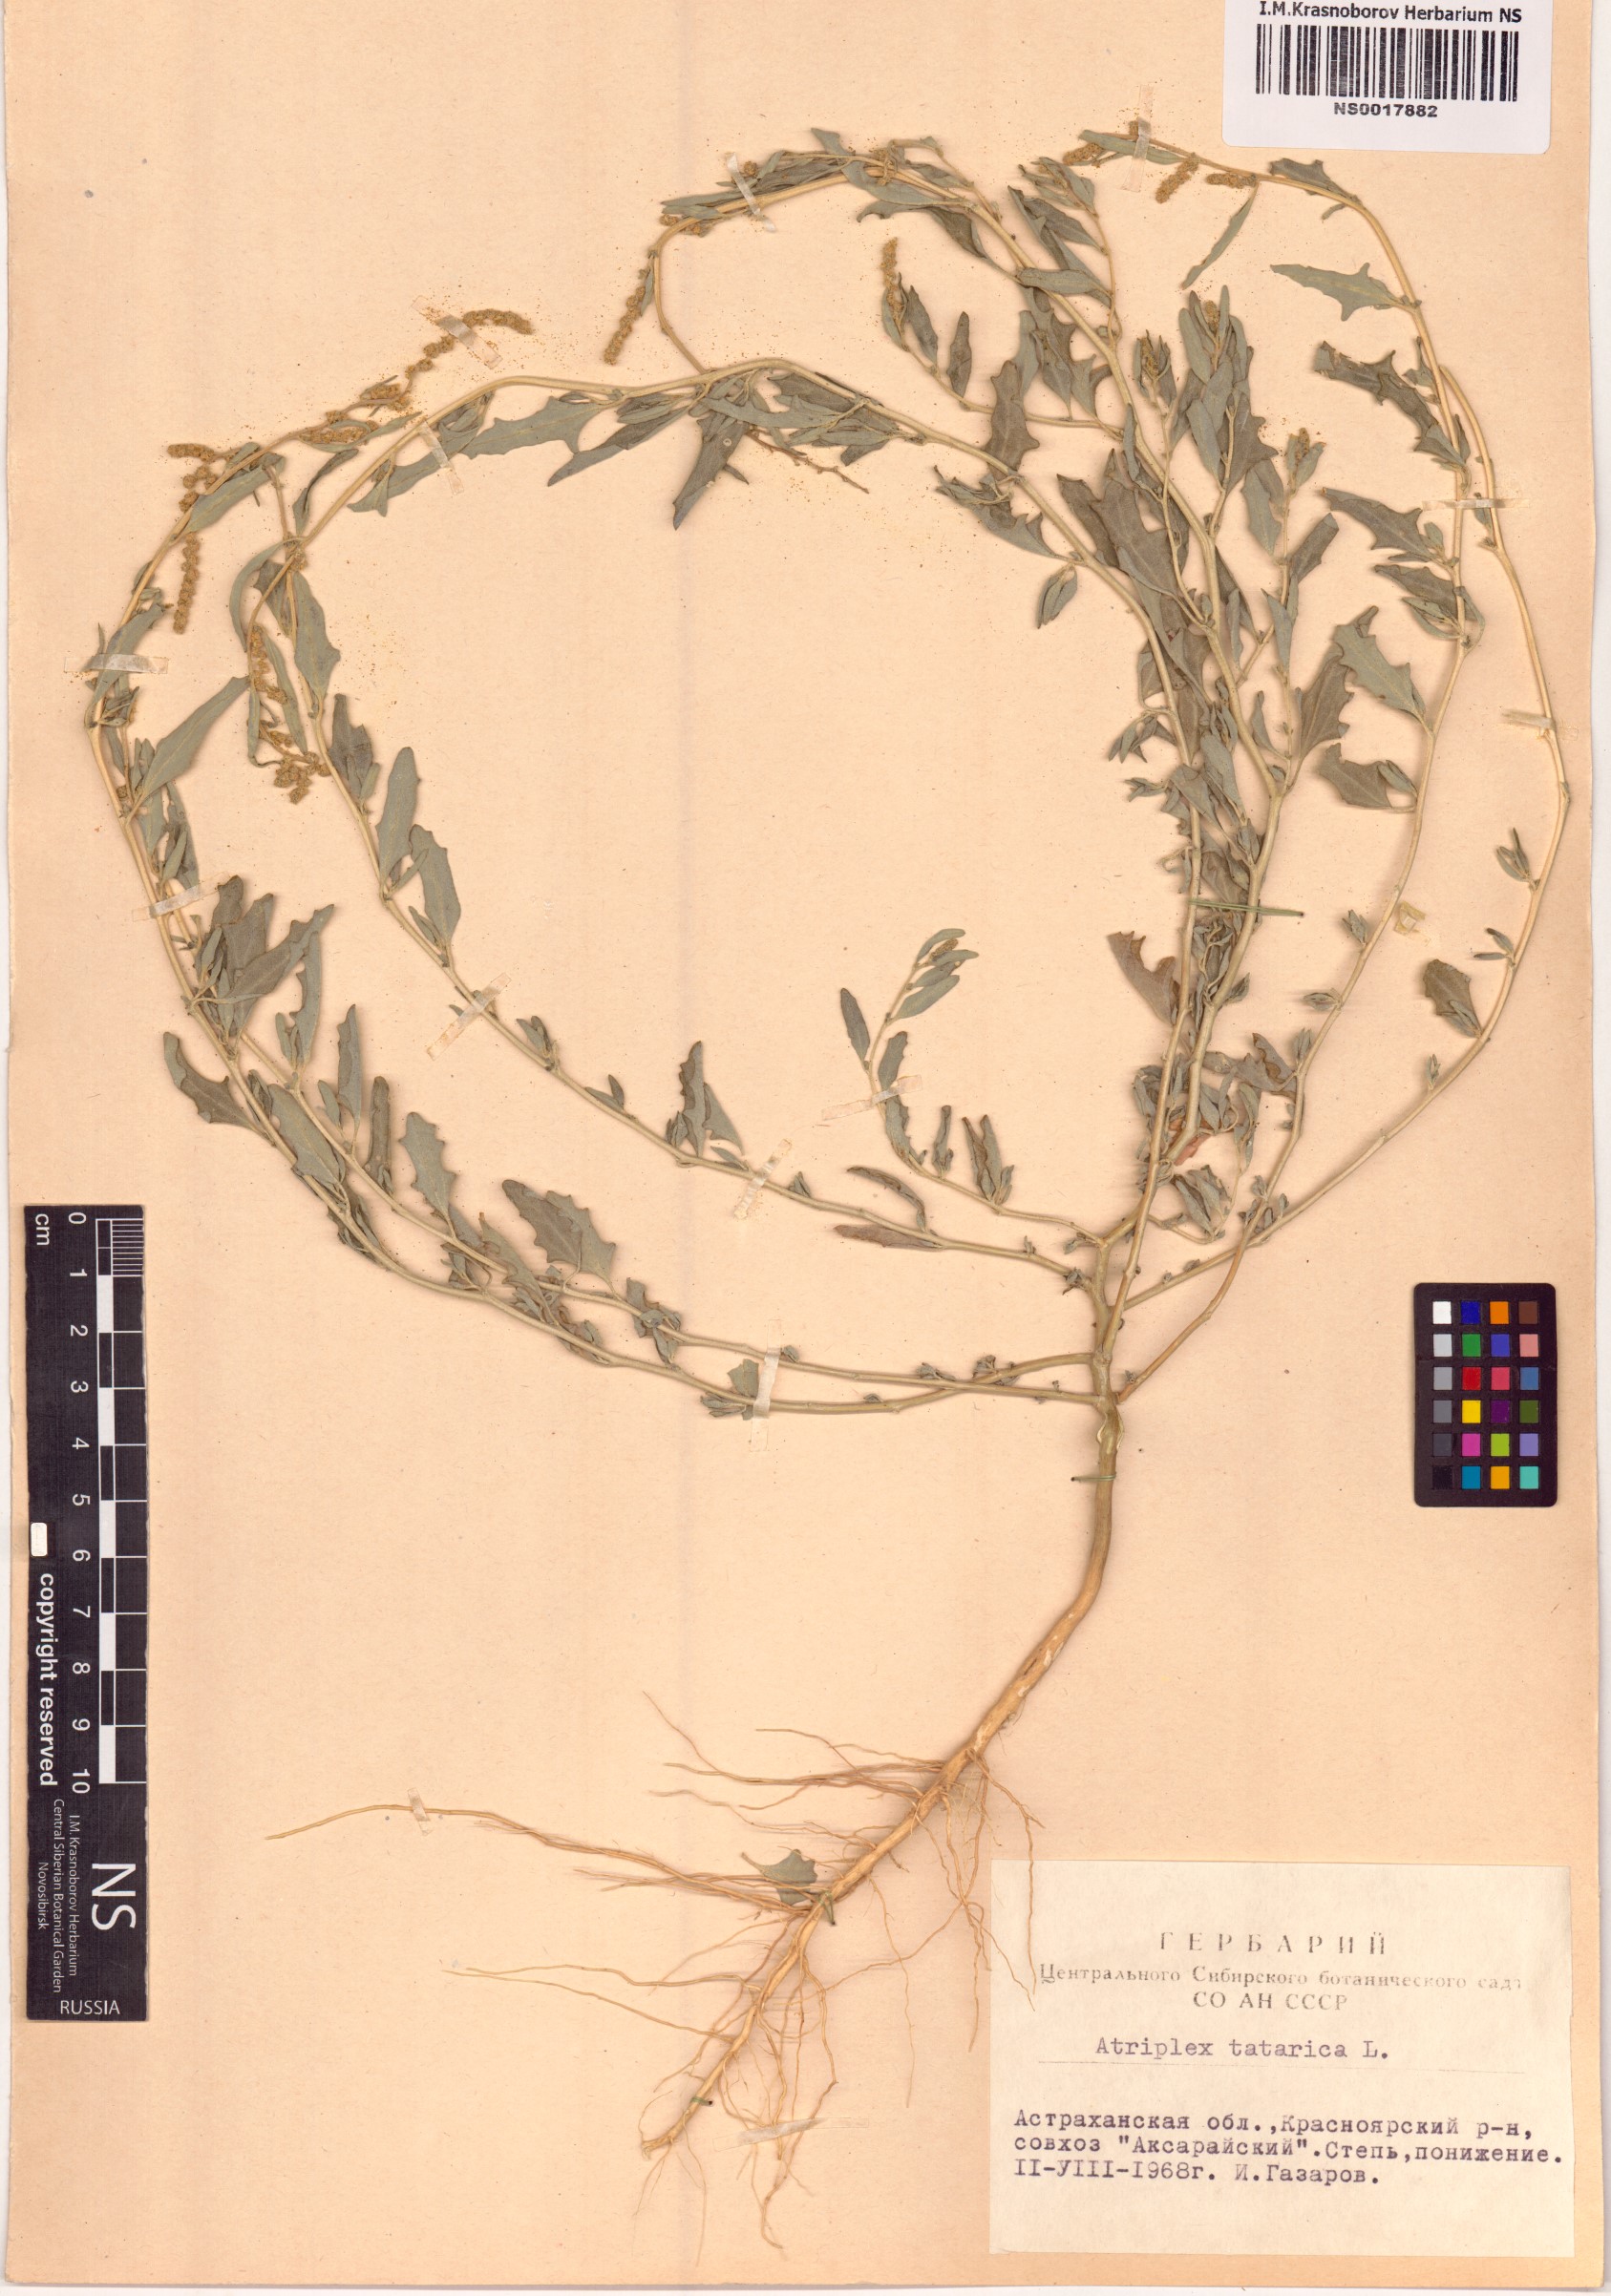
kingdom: Plantae
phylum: Tracheophyta
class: Magnoliopsida
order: Caryophyllales
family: Amaranthaceae
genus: Atriplex
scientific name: Atriplex tatarica
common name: Tatarian orache
